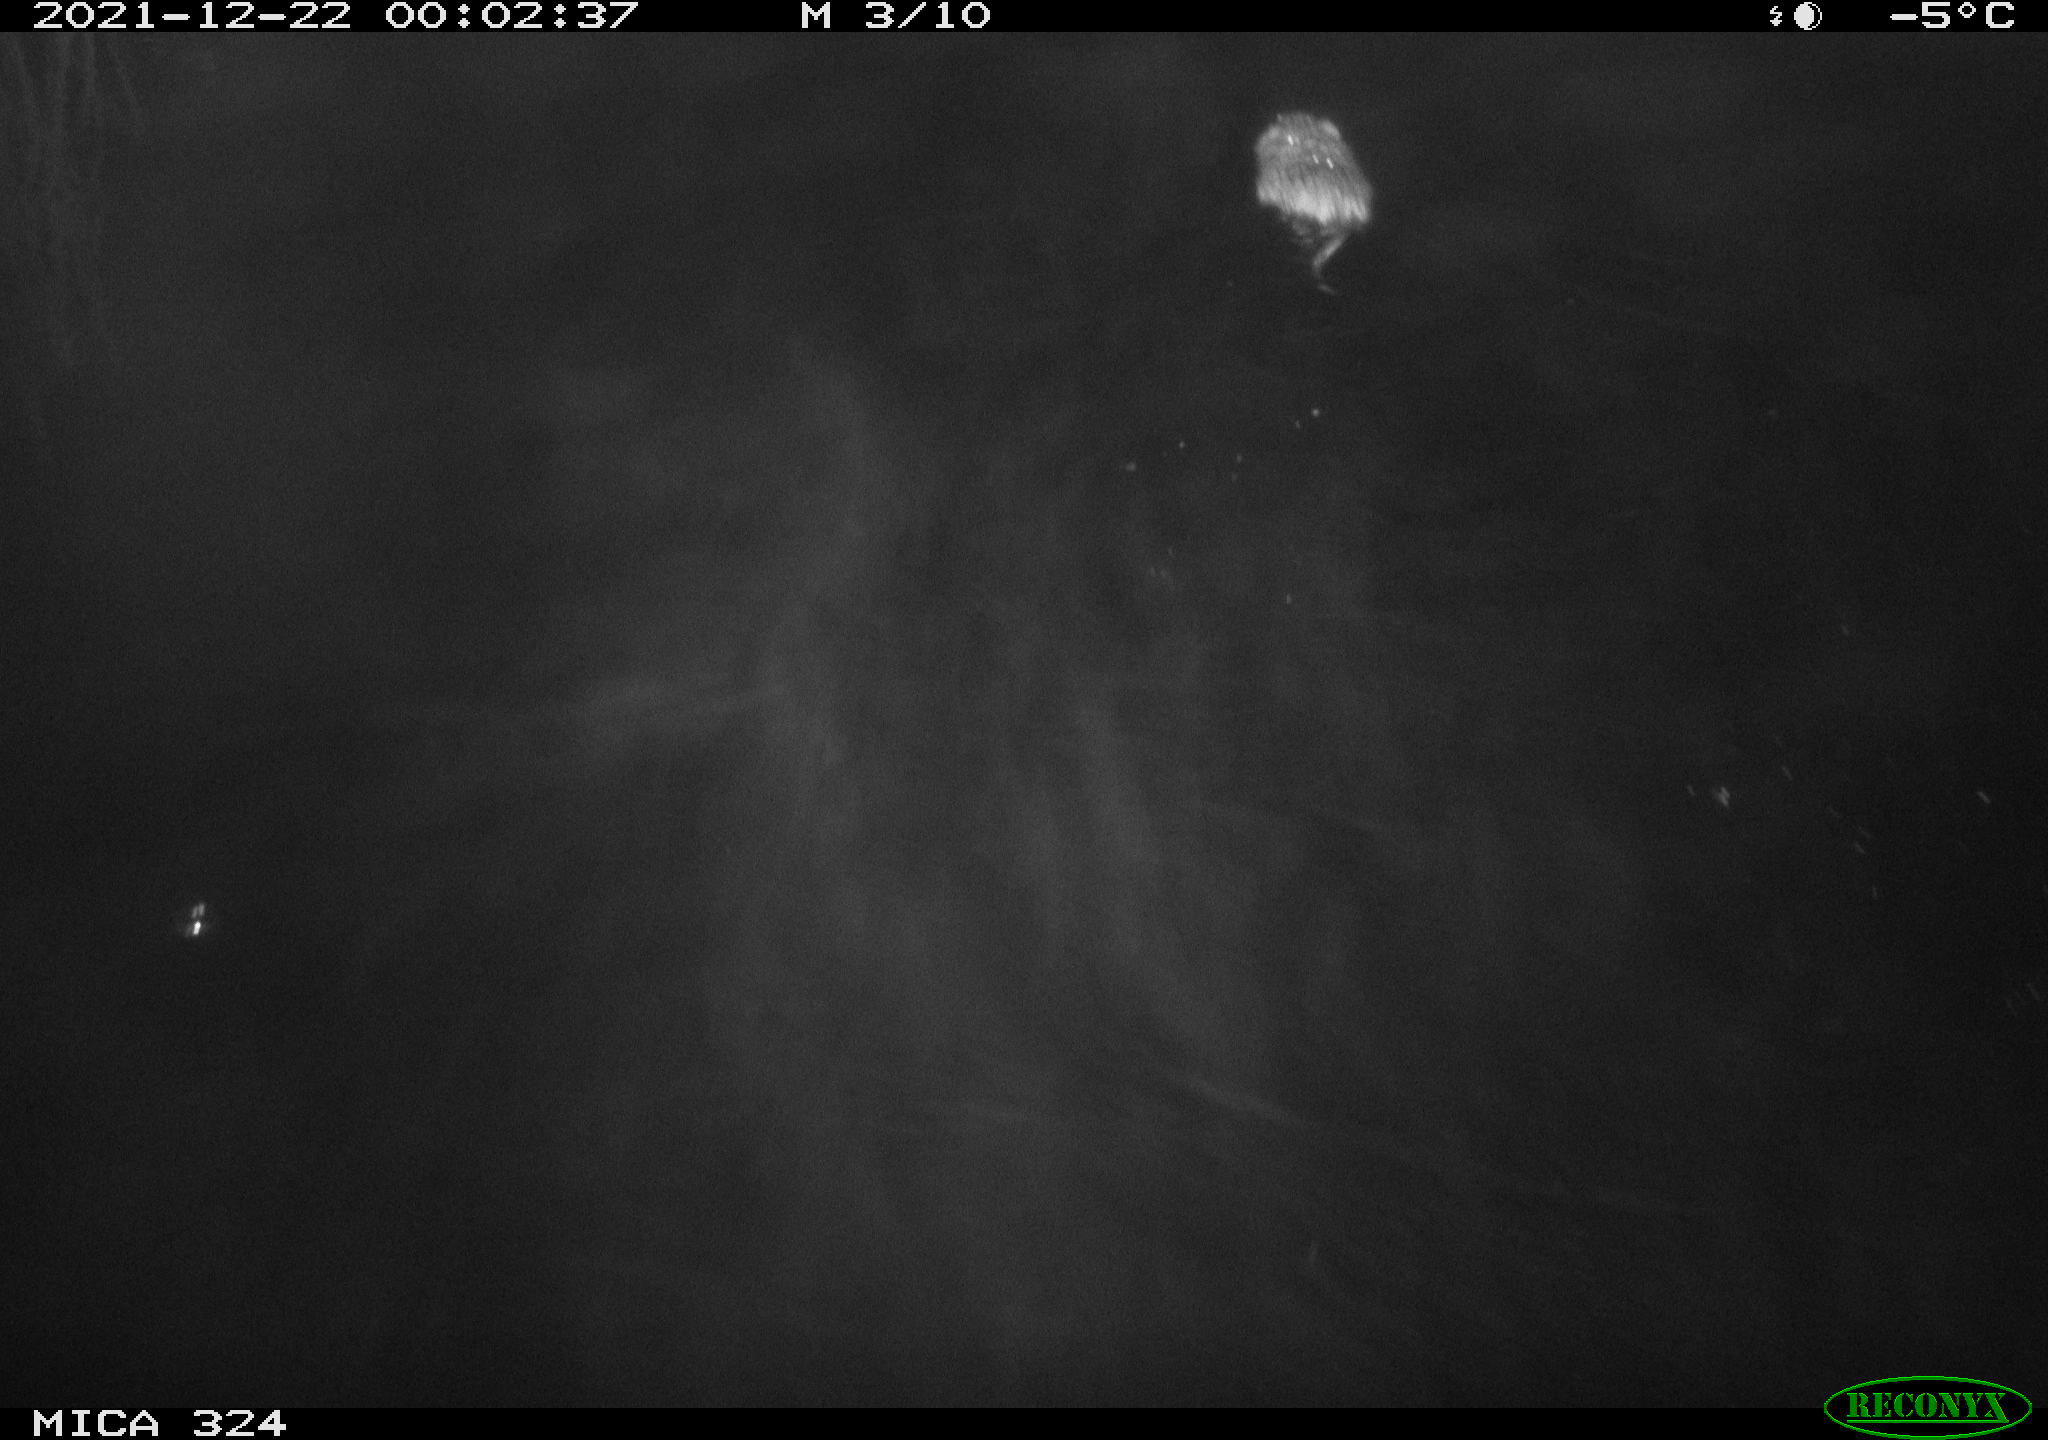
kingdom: Animalia
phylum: Chordata
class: Mammalia
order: Rodentia
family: Cricetidae
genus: Ondatra
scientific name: Ondatra zibethicus
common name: Muskrat
